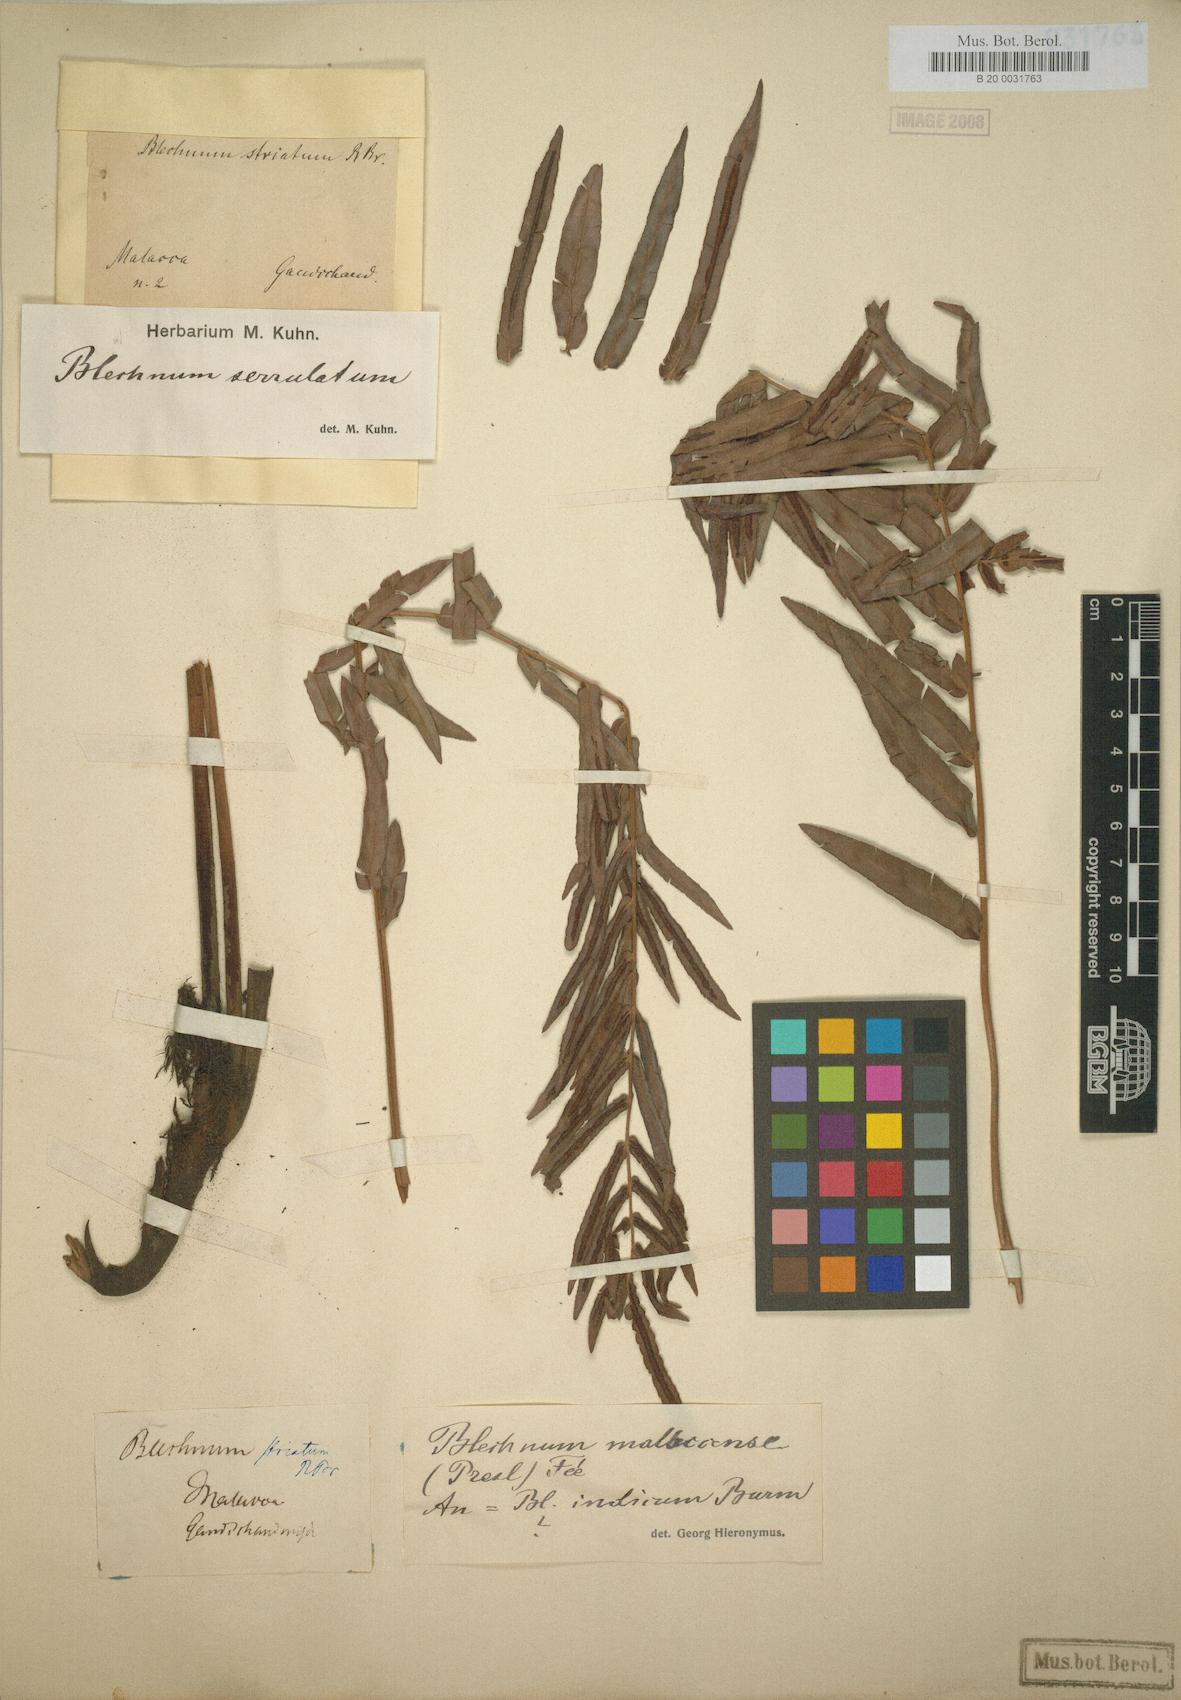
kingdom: Plantae
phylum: Tracheophyta
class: Polypodiopsida
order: Polypodiales
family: Blechnaceae
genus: Telmatoblechnum
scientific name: Telmatoblechnum indicum
